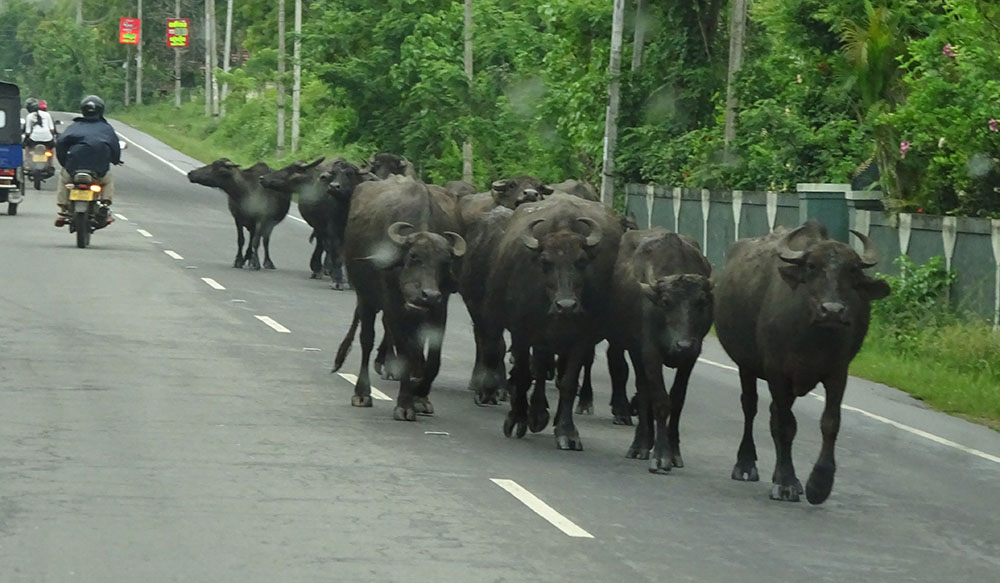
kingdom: Animalia
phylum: Chordata
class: Mammalia
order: Artiodactyla
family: Bovidae
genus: Bubalus
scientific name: Bubalus bubalis
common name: Water buffalo
